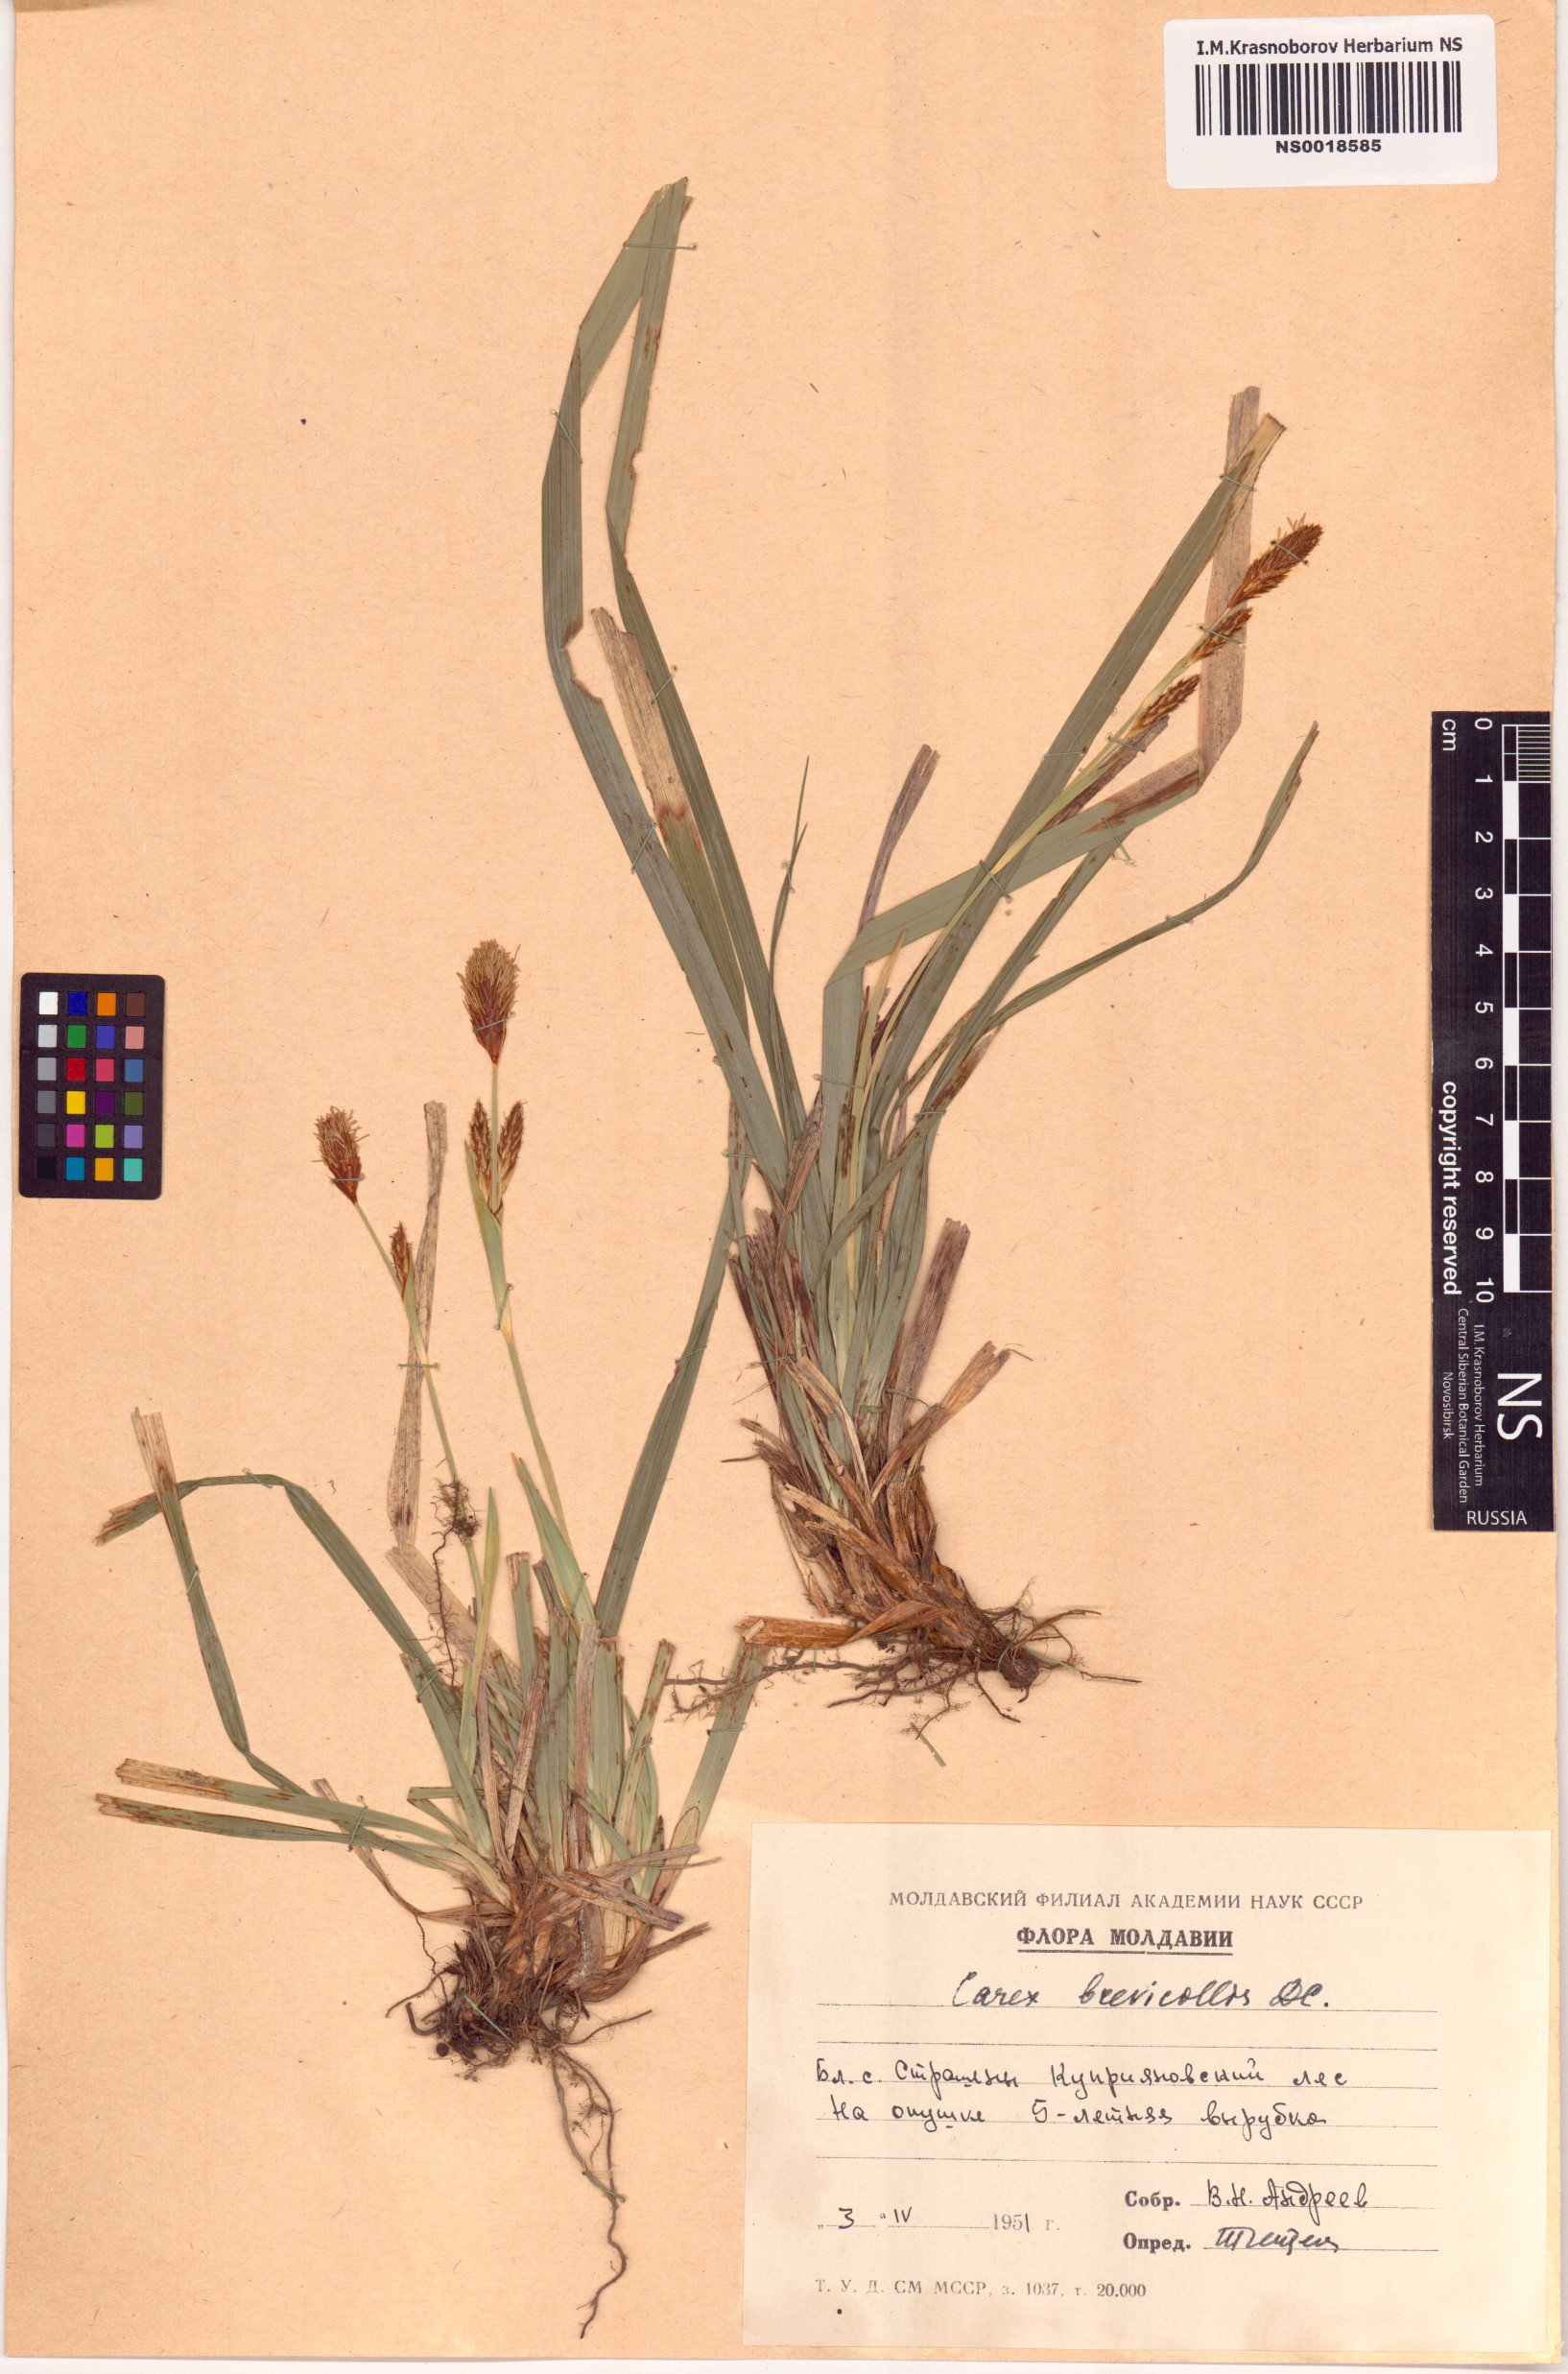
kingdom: Plantae
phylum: Tracheophyta
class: Liliopsida
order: Poales
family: Cyperaceae
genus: Carex
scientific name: Carex brevicollis
